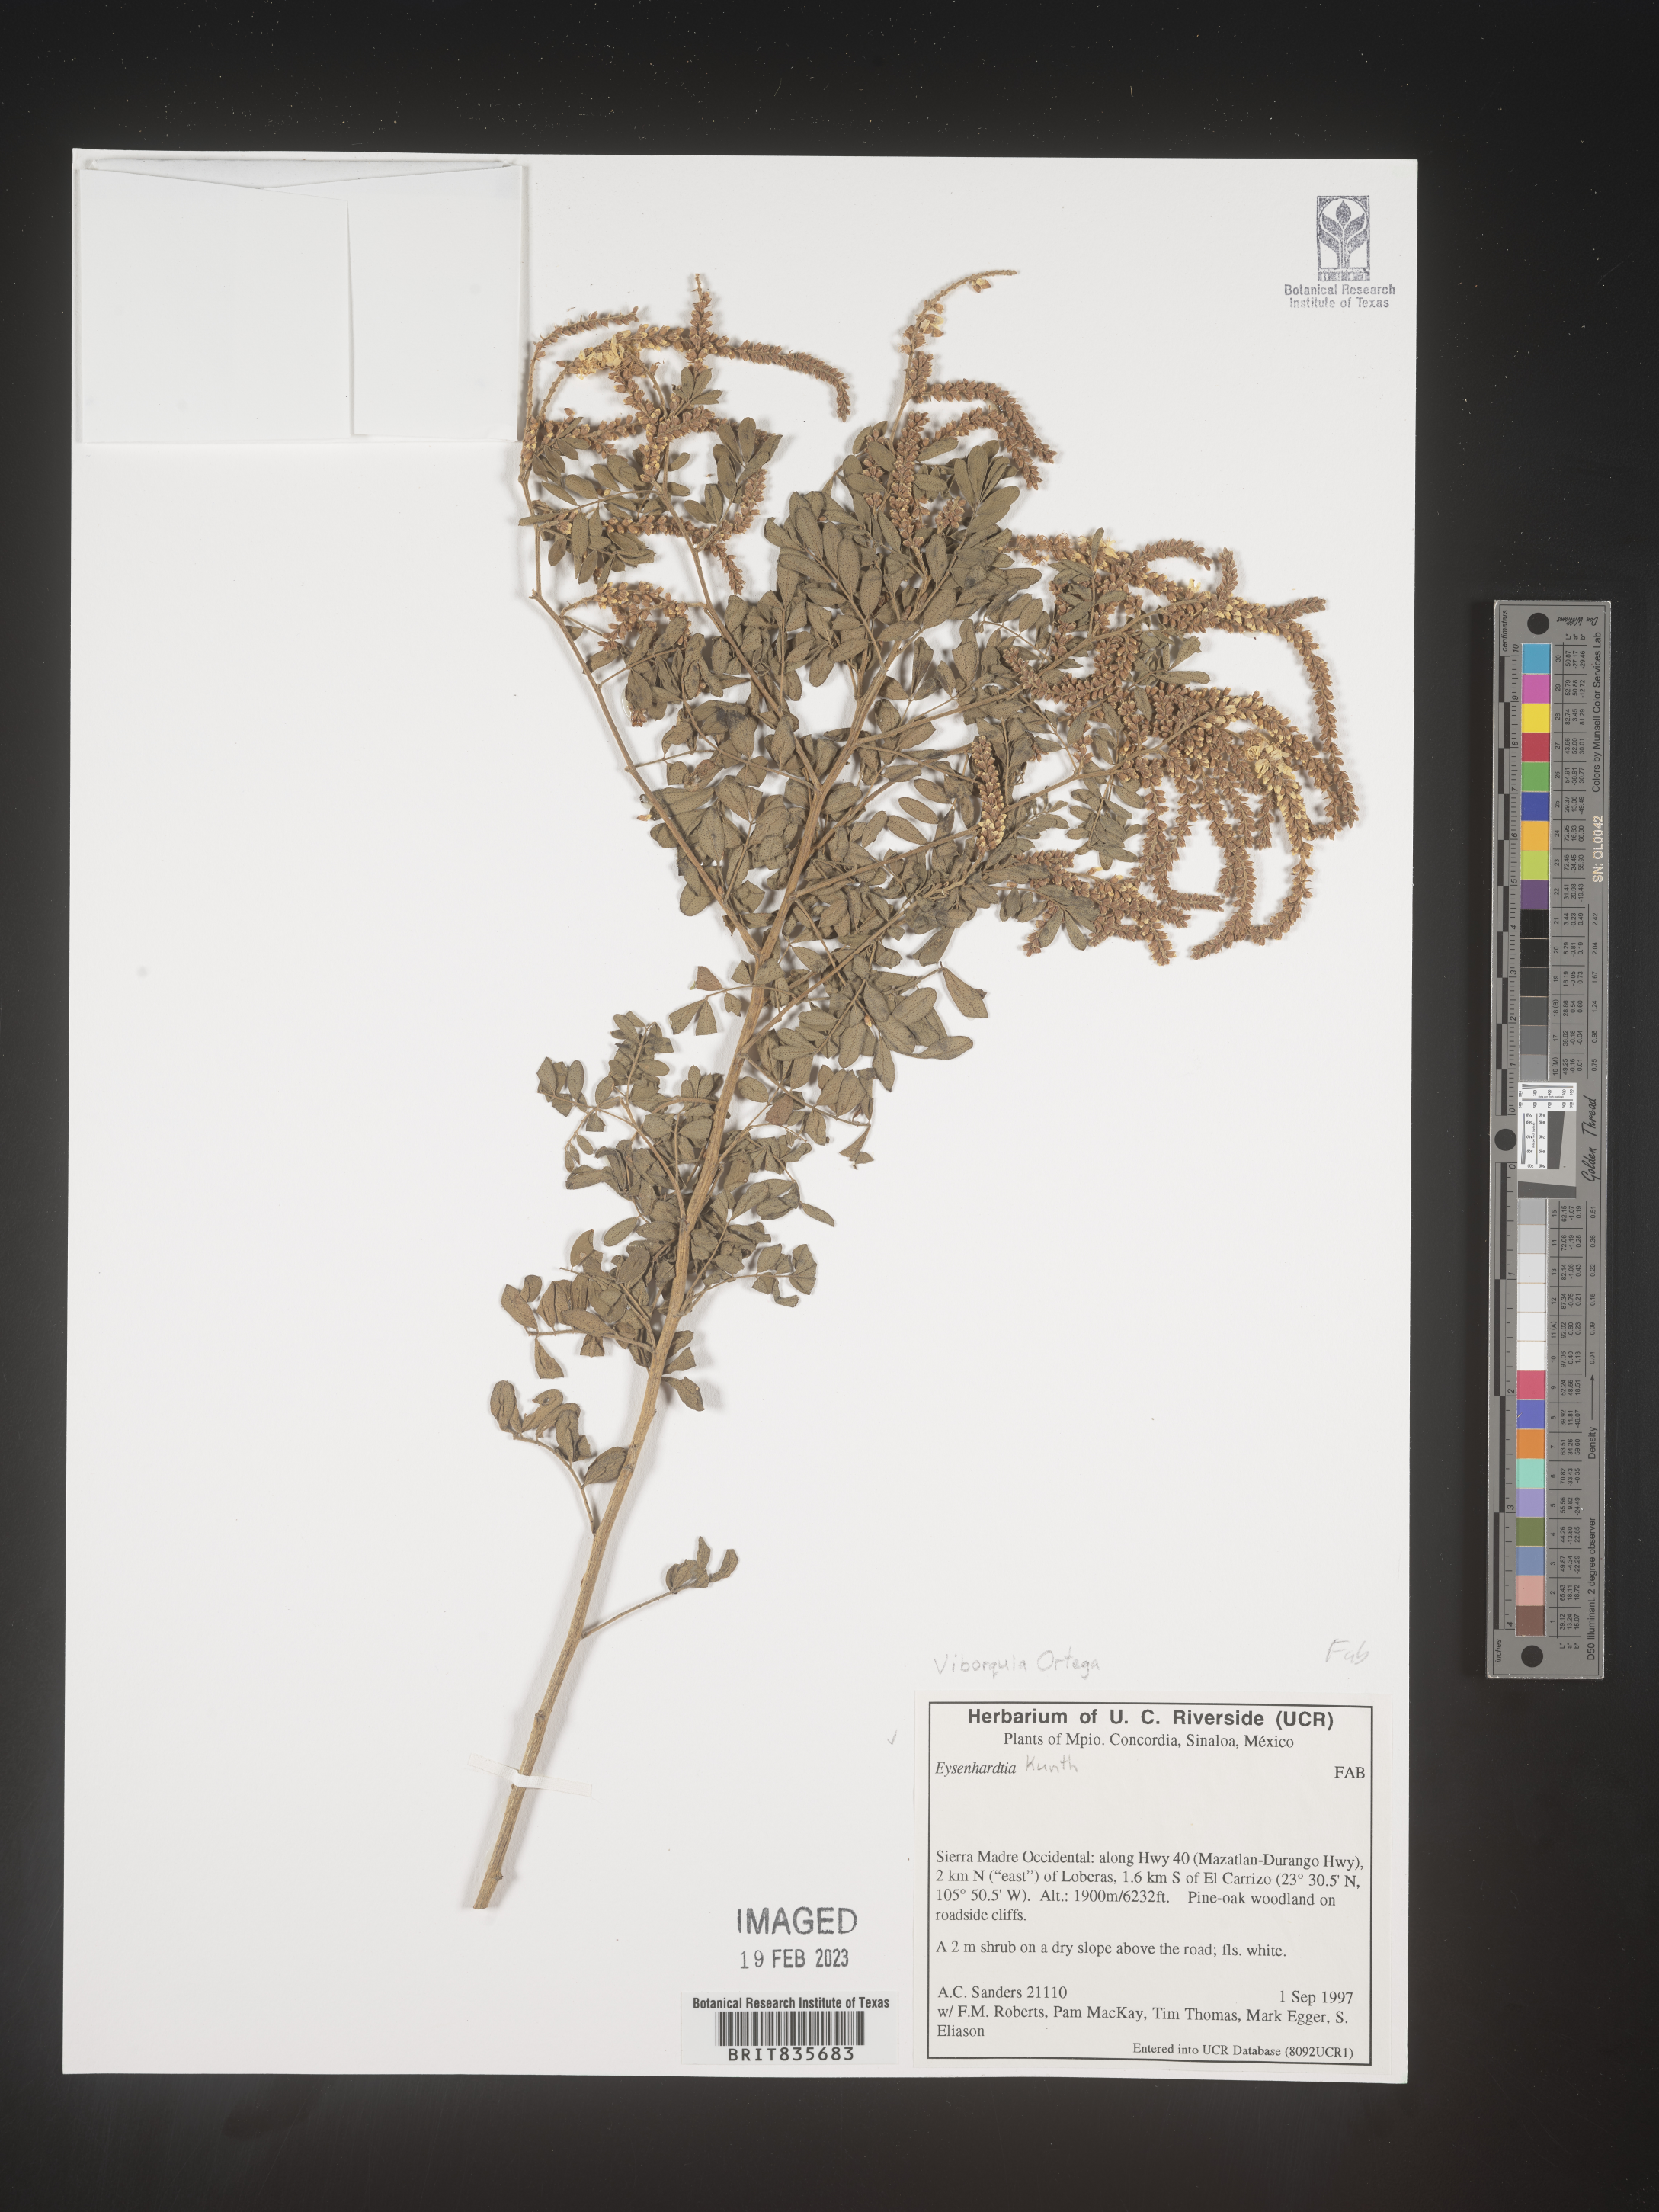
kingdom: Plantae
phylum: Tracheophyta
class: Magnoliopsida
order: Fabales
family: Fabaceae
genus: Eysenhardtia
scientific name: Eysenhardtia
